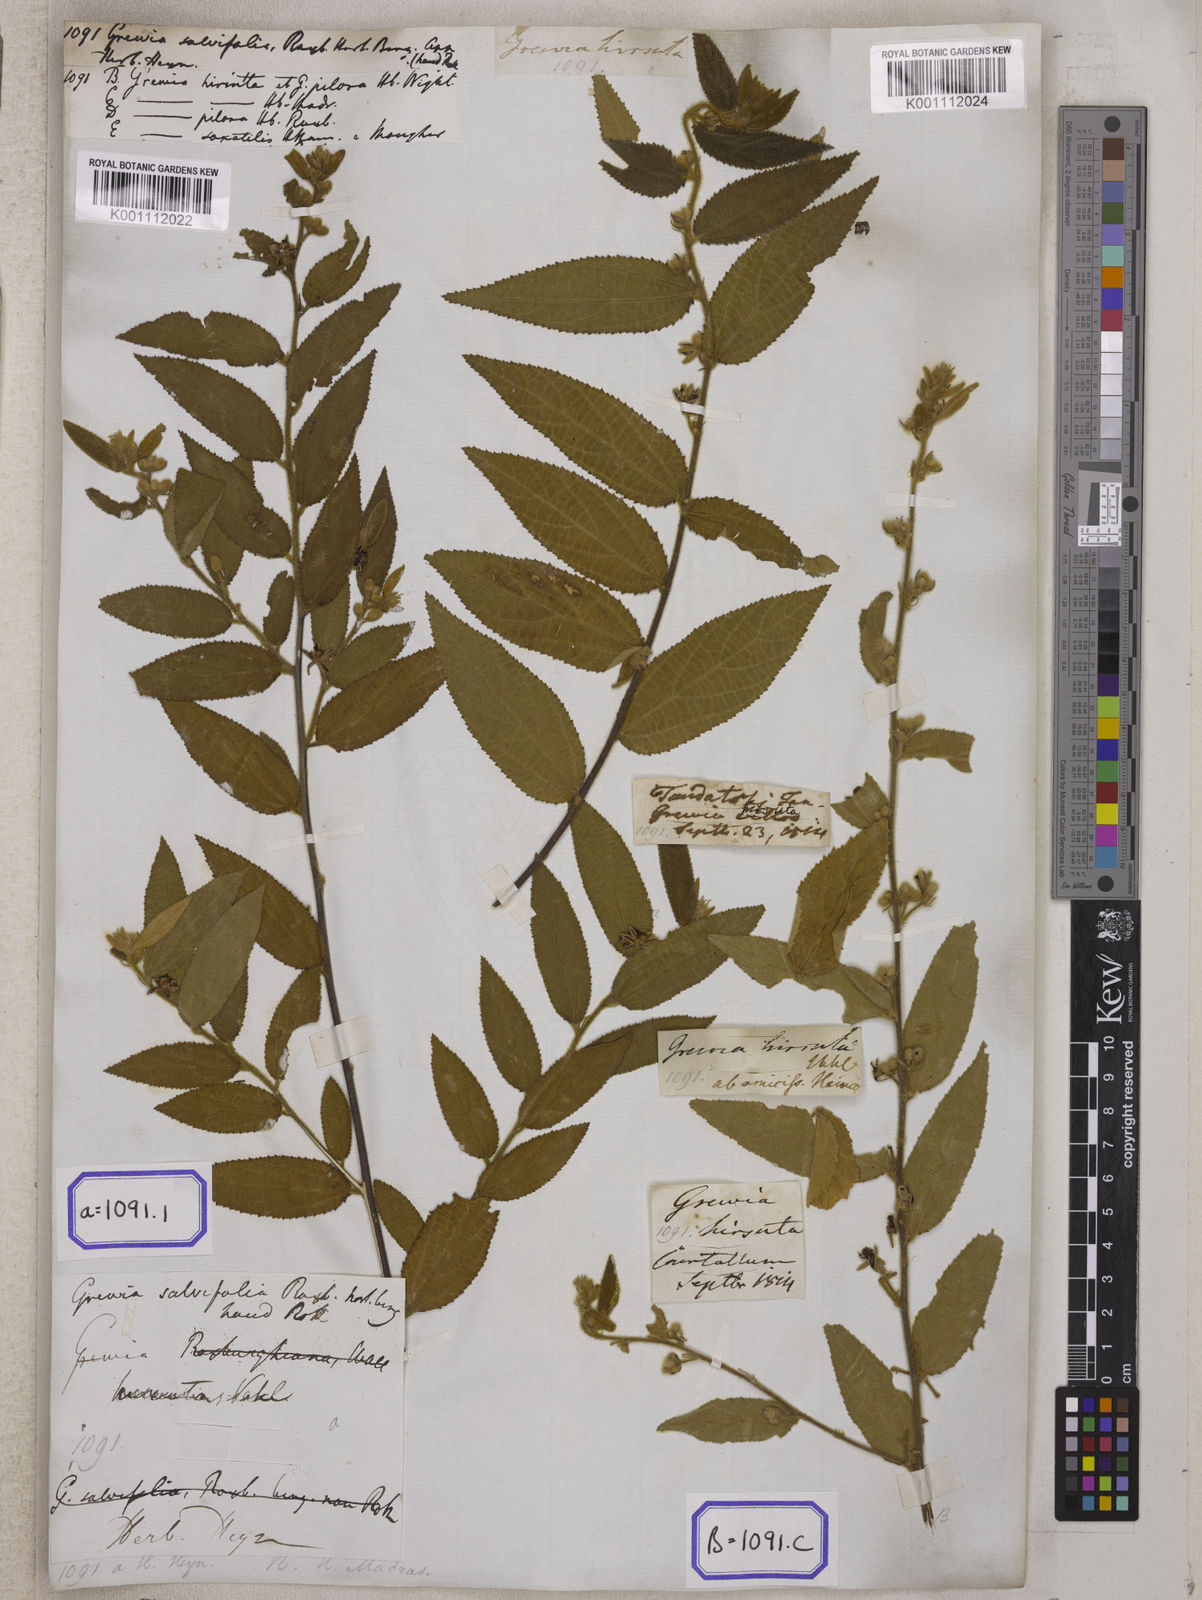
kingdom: Plantae
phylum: Tracheophyta
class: Magnoliopsida
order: Malvales
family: Malvaceae
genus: Grewia
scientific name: Grewia excelsa
